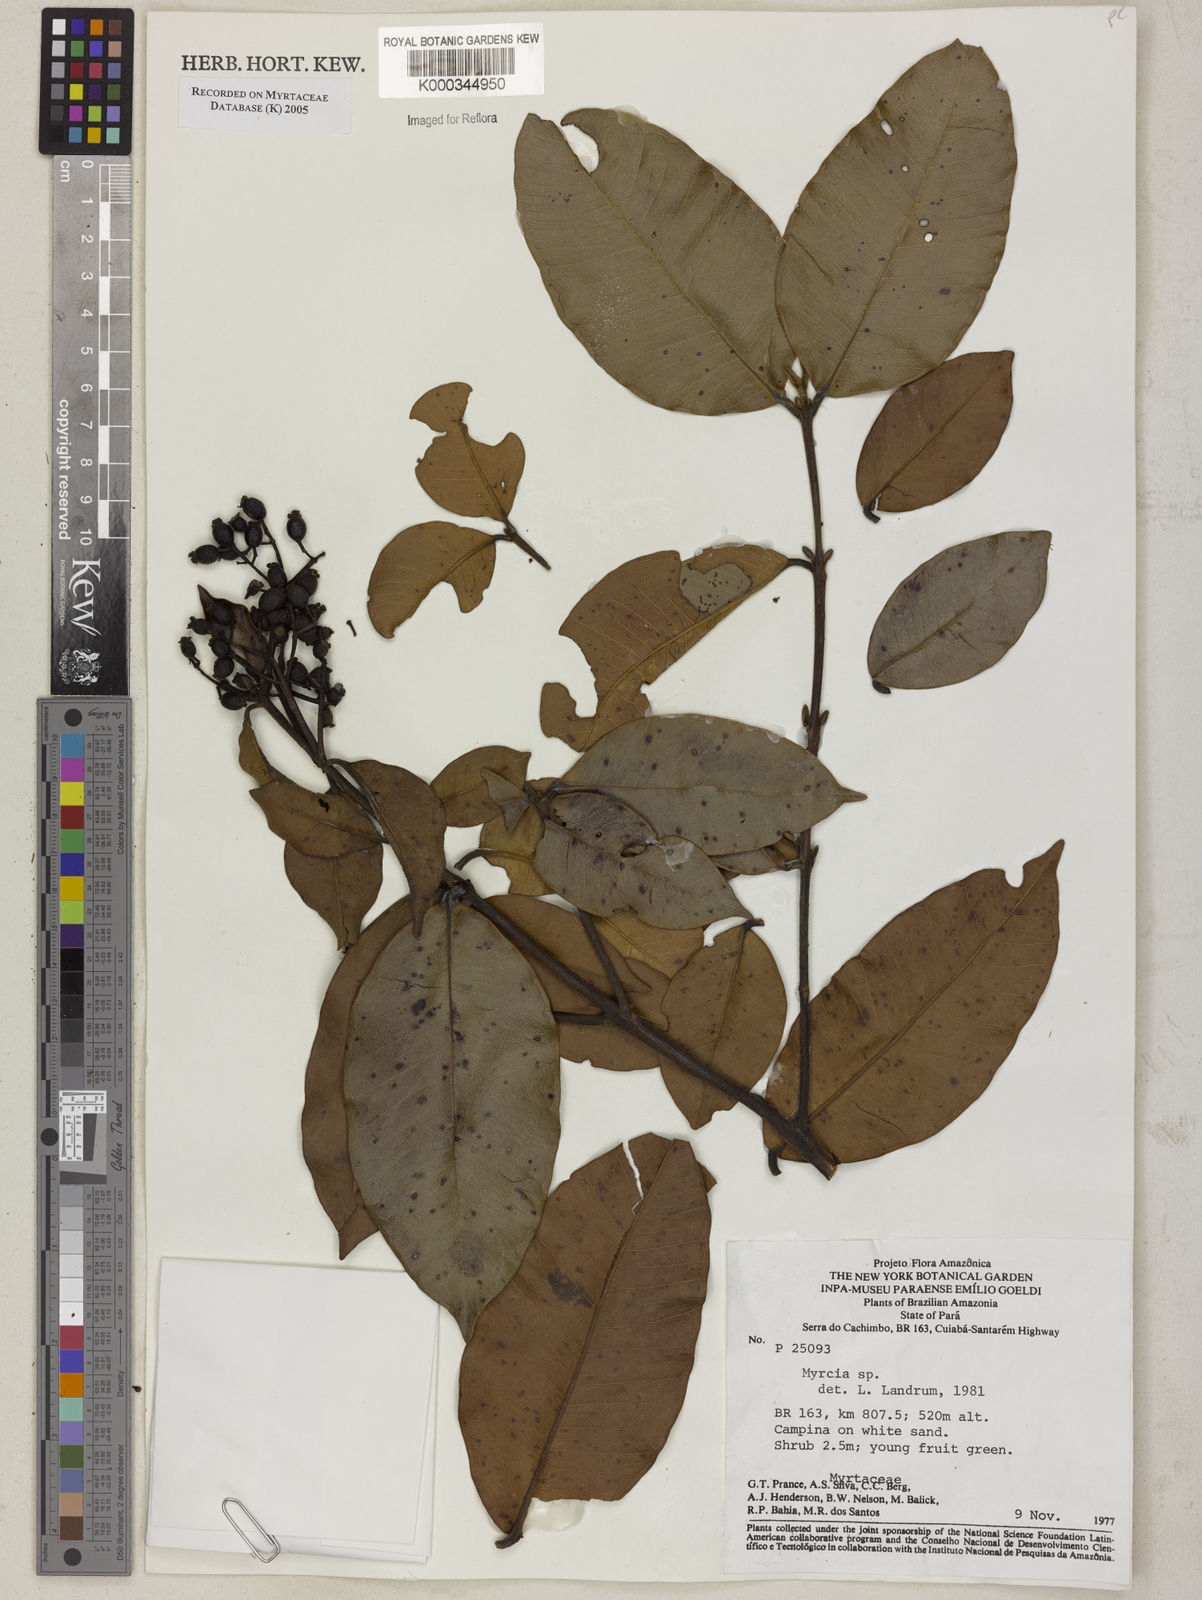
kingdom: Plantae
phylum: Tracheophyta
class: Magnoliopsida
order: Myrtales
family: Myrtaceae
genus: Myrcia
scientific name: Myrcia
